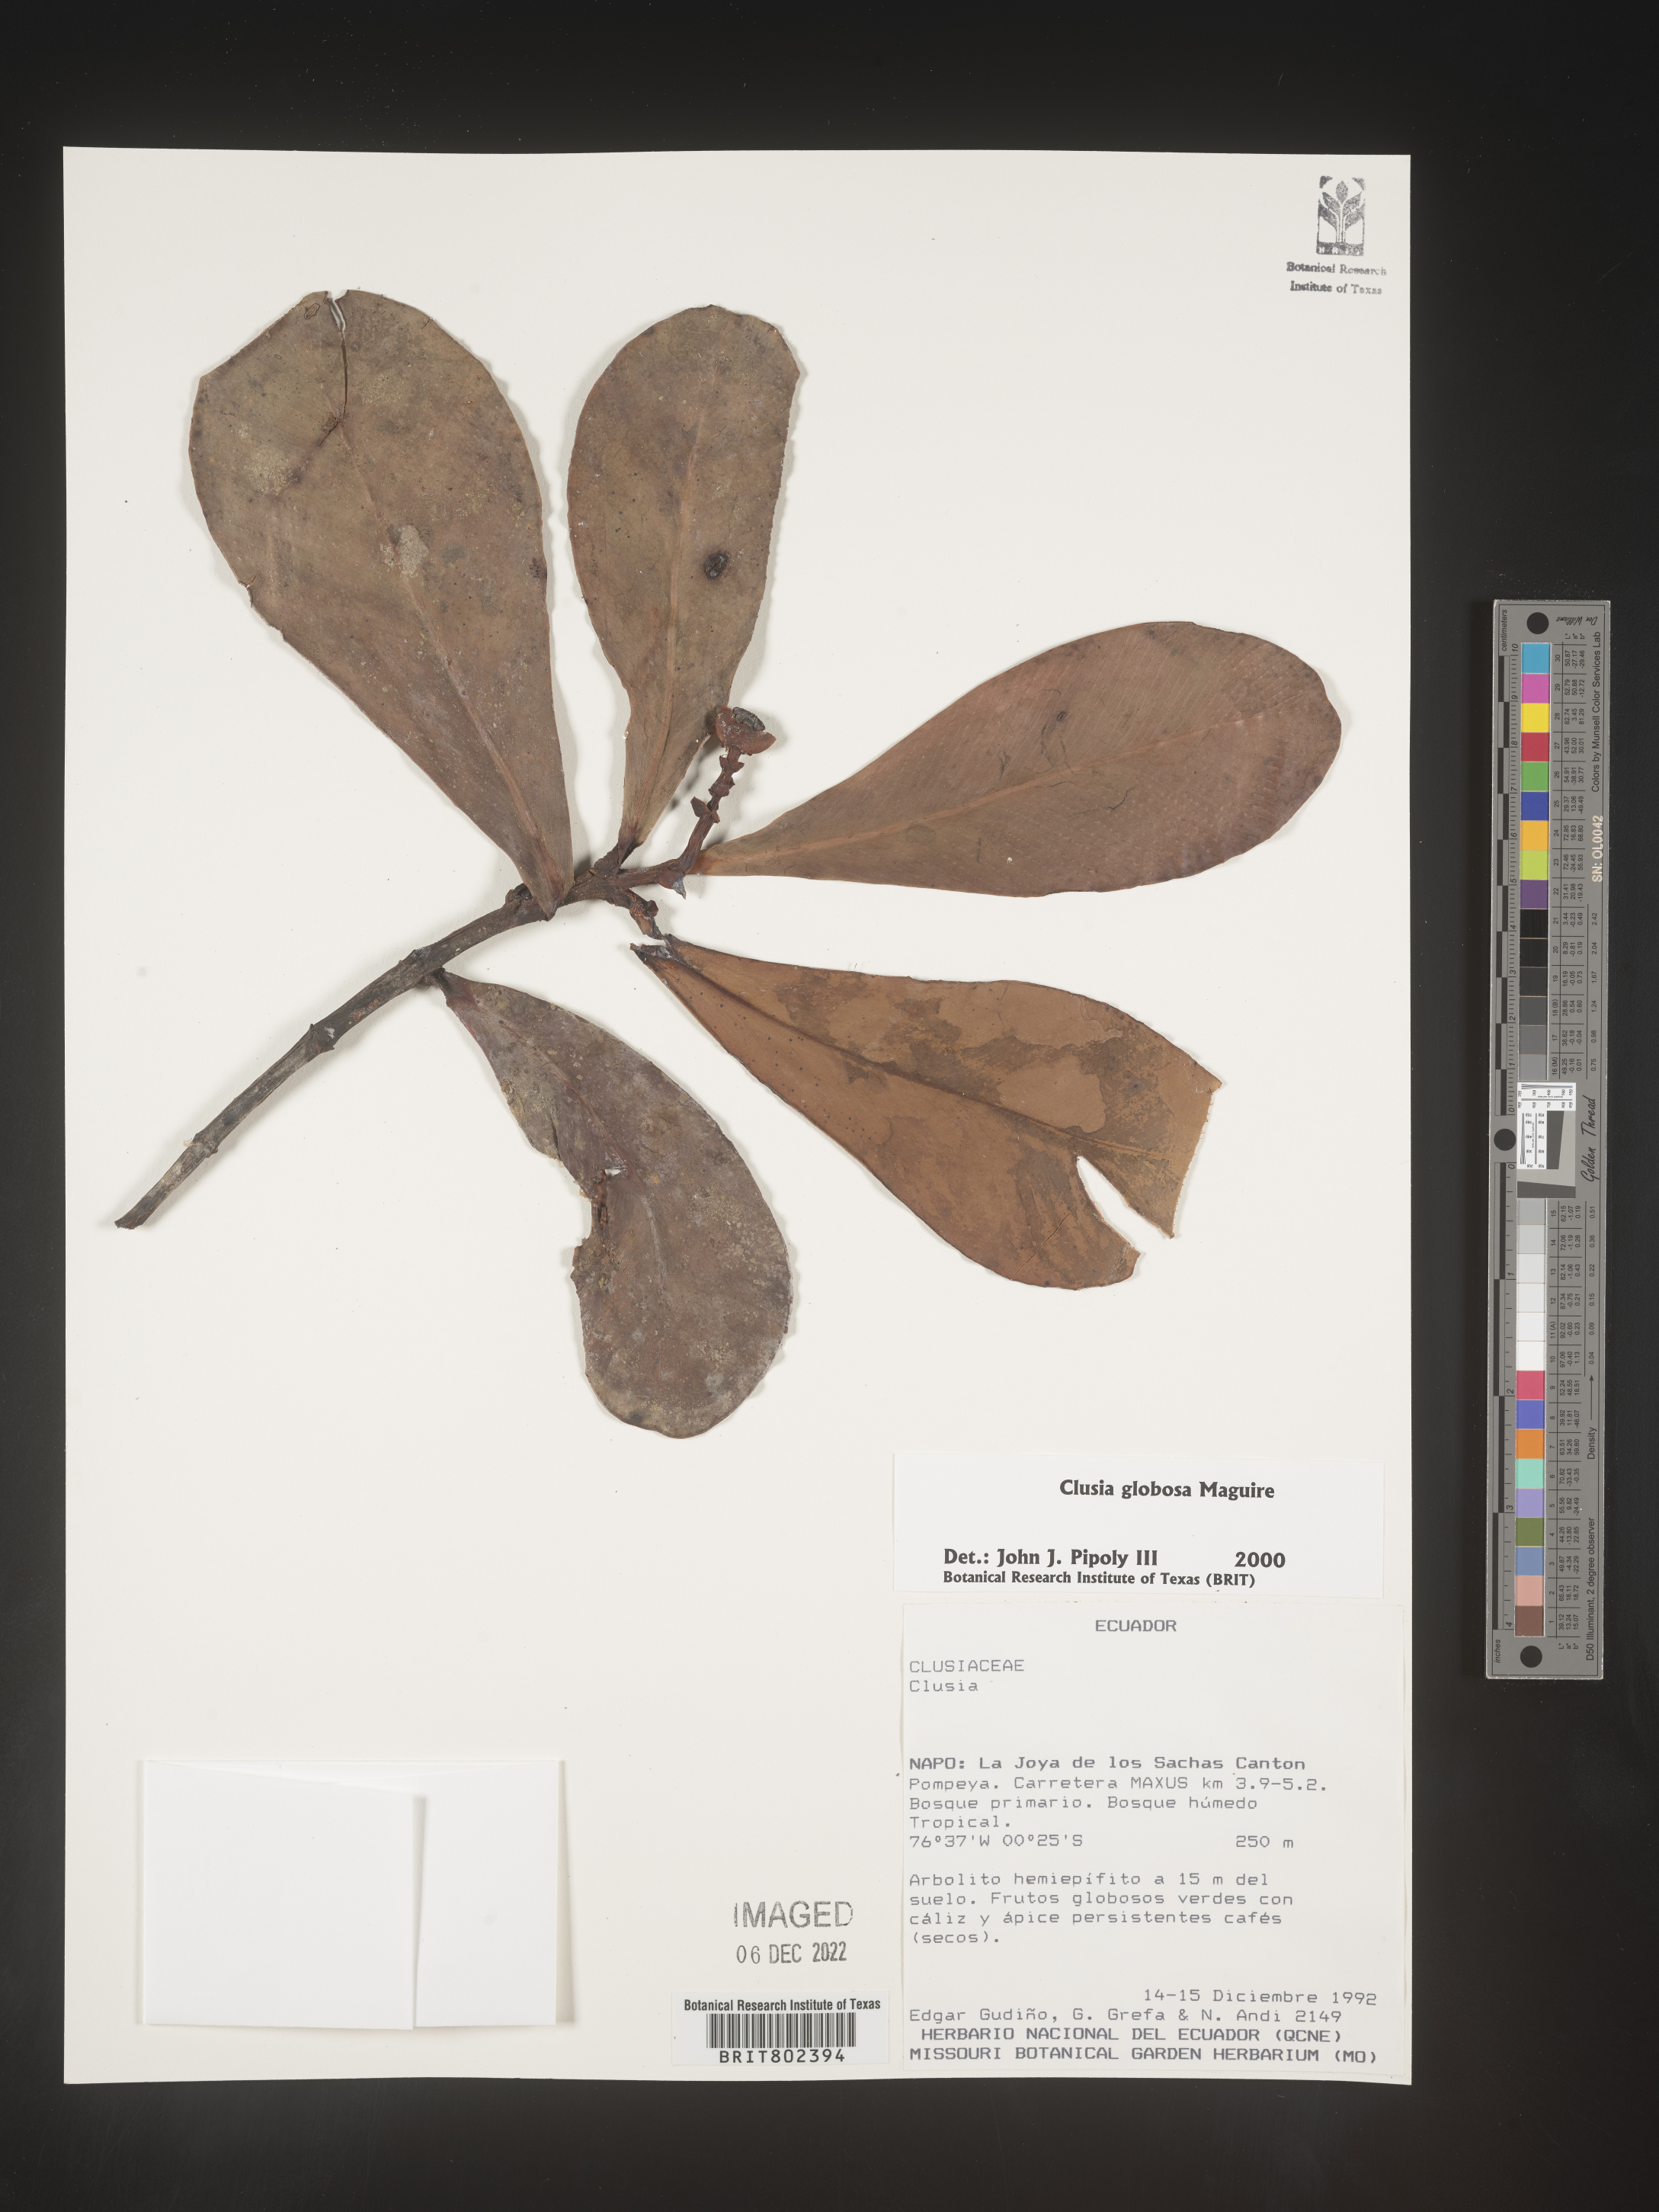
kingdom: Plantae
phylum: Tracheophyta
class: Magnoliopsida
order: Malpighiales
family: Clusiaceae
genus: Clusia
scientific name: Clusia
